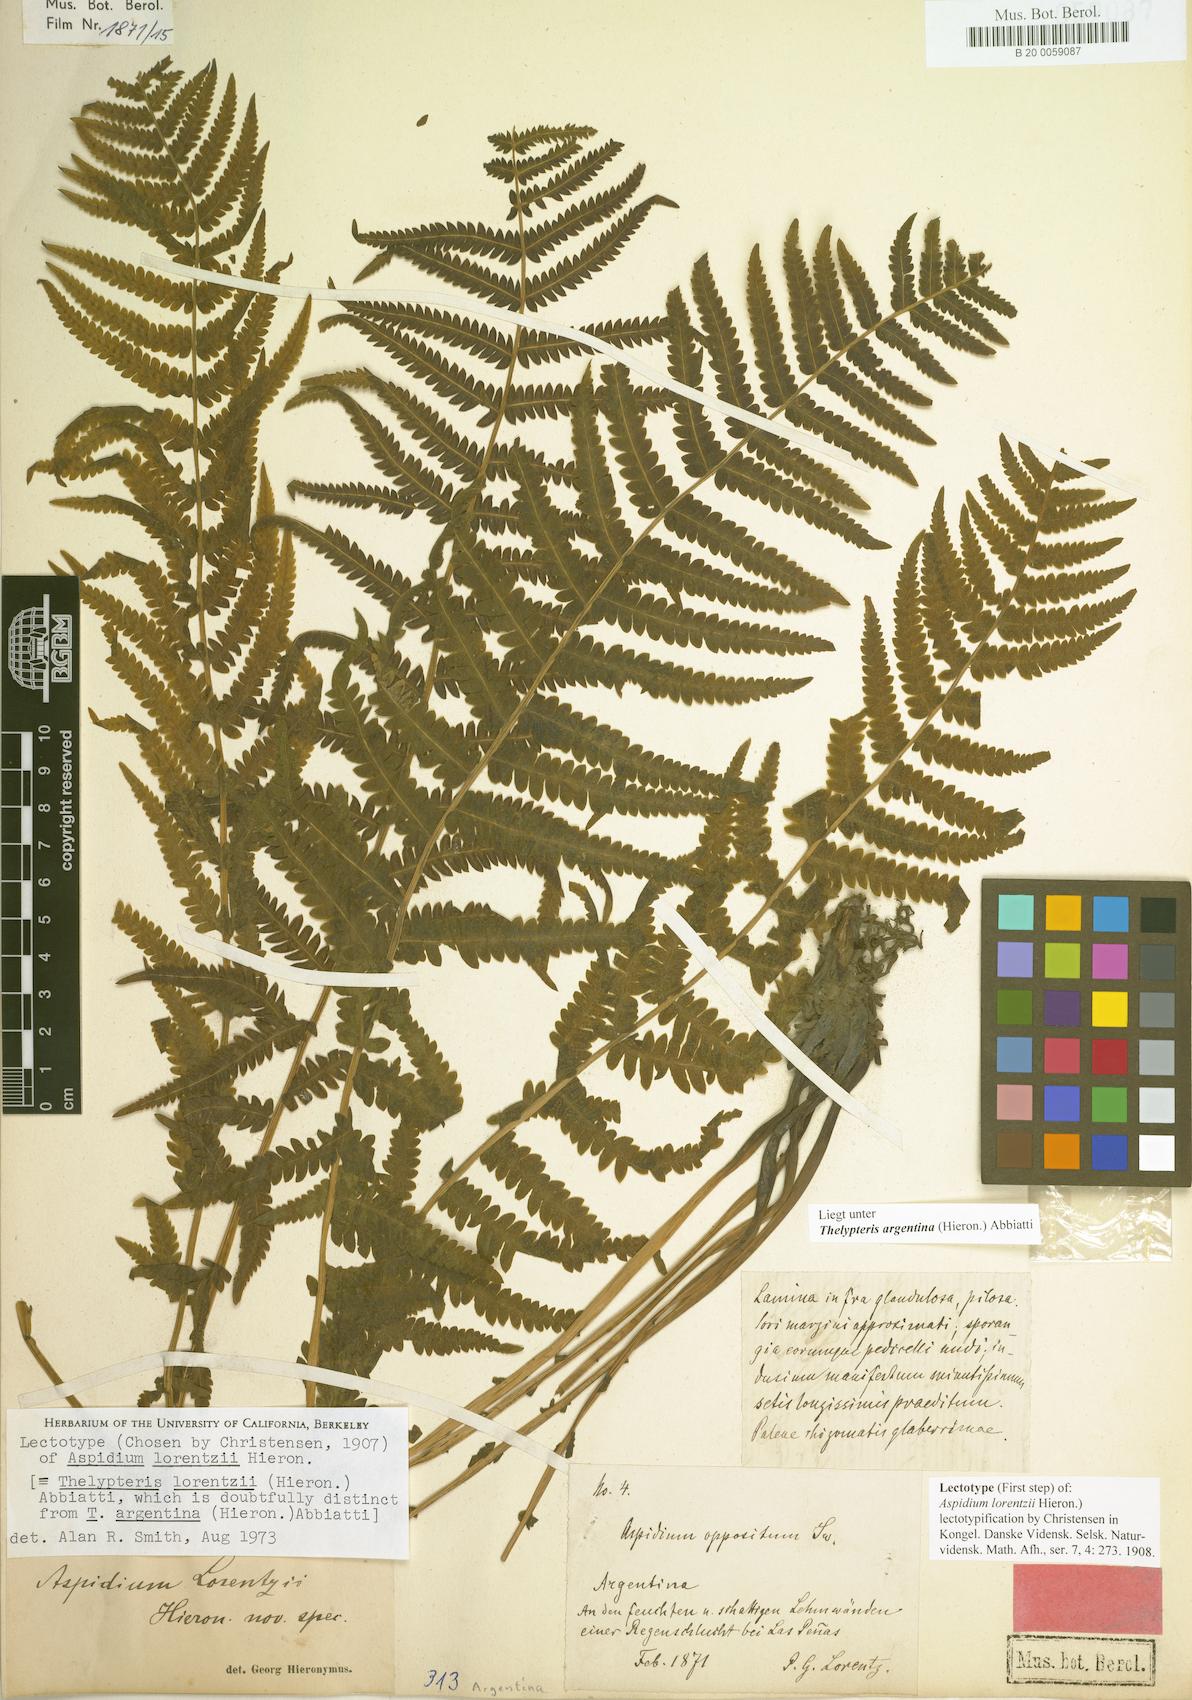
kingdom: Plantae
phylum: Tracheophyta
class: Polypodiopsida
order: Polypodiales
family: Thelypteridaceae
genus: Amauropelta
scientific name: Amauropelta argentina
